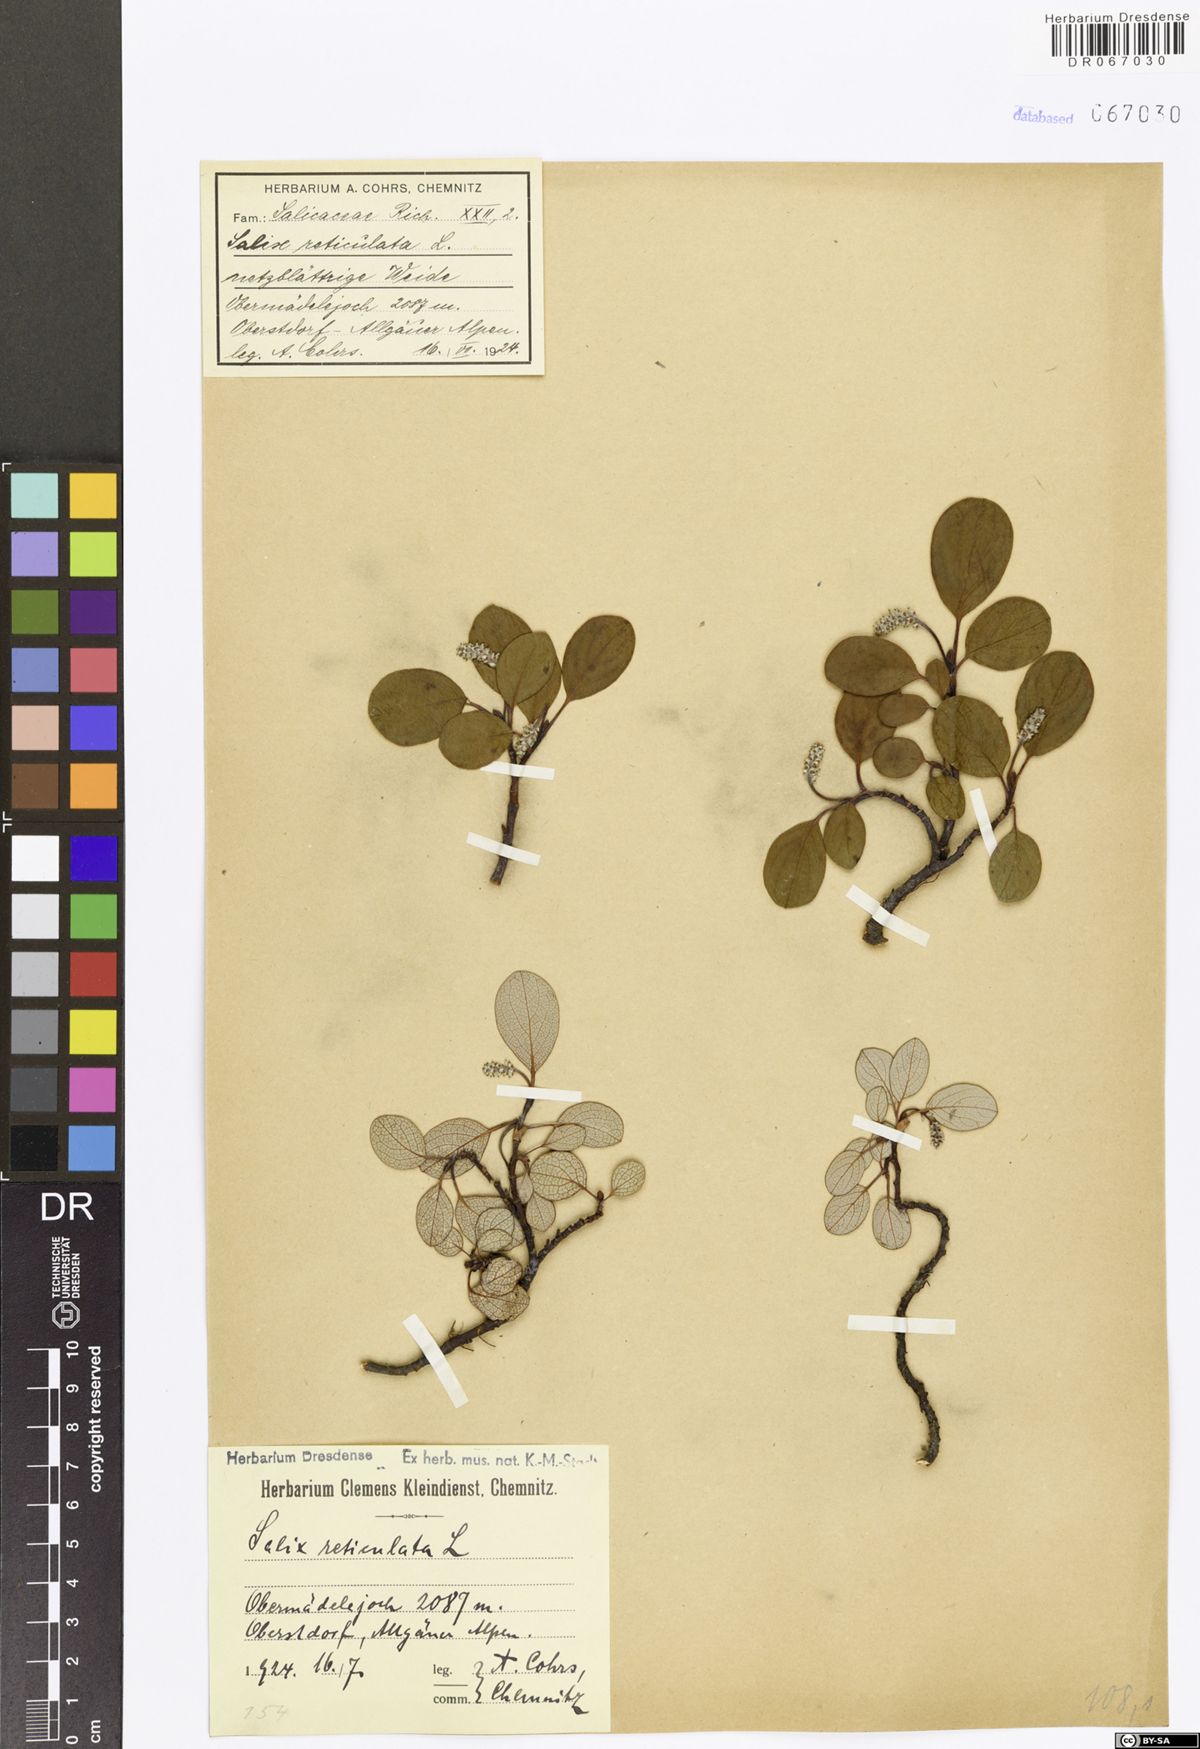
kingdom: Plantae
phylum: Tracheophyta
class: Magnoliopsida
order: Malpighiales
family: Salicaceae
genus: Salix
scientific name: Salix reticulata
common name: Net-leaved willow
